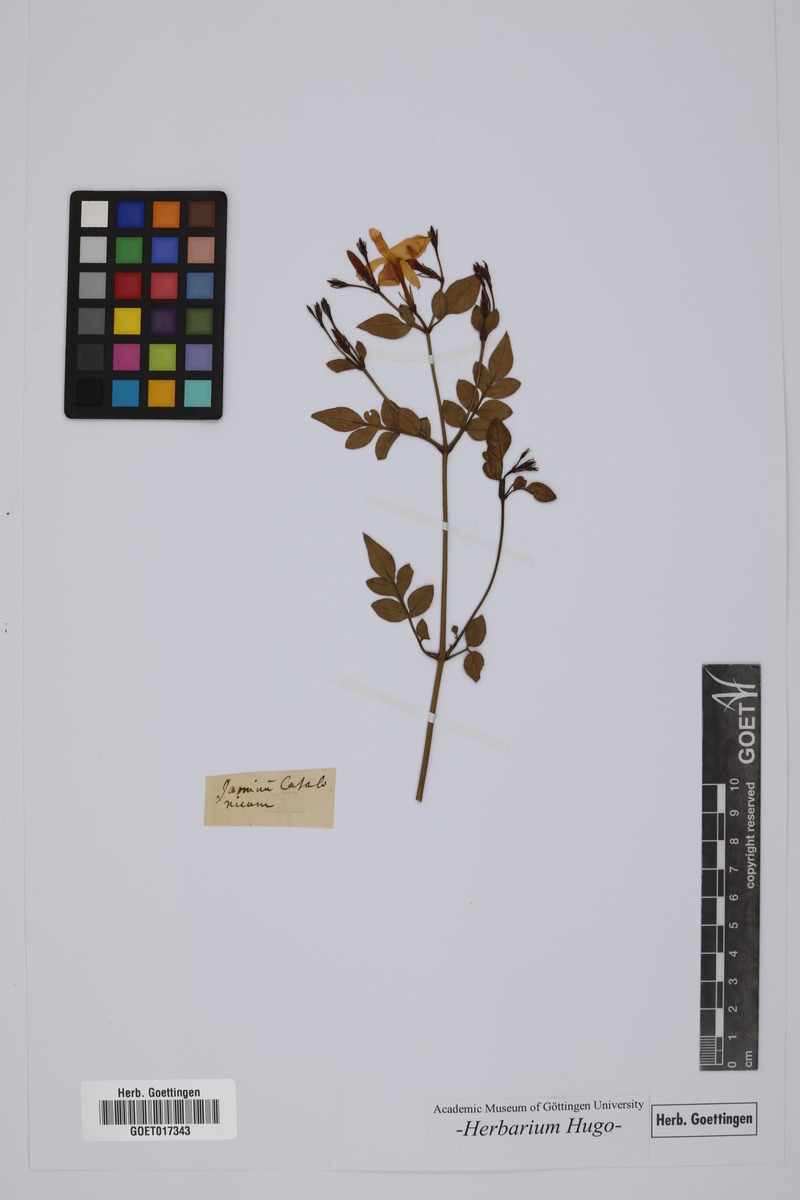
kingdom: Plantae
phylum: Tracheophyta
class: Magnoliopsida
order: Lamiales
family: Oleaceae
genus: Jasminum
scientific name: Jasminum grandiflorum
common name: Catalonian jasmine
